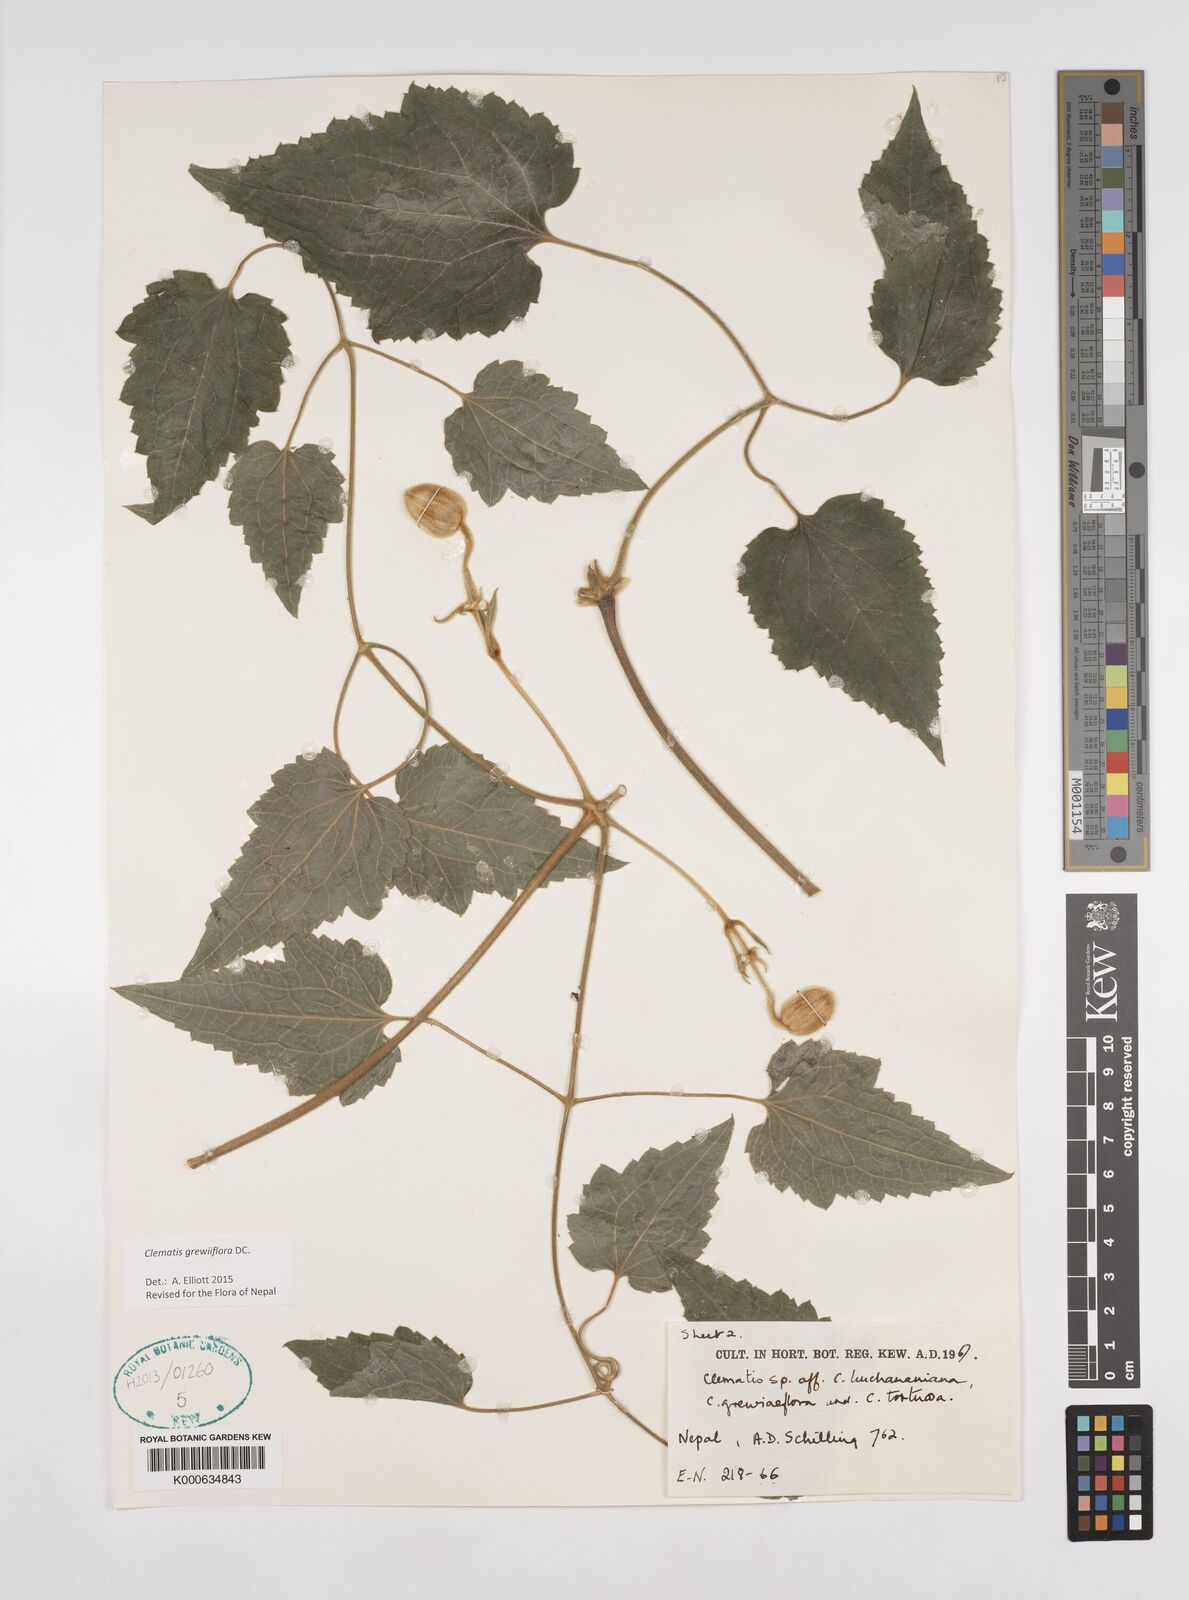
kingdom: Plantae
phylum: Tracheophyta
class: Magnoliopsida
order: Ranunculales
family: Ranunculaceae
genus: Clematis
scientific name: Clematis buchananiana
